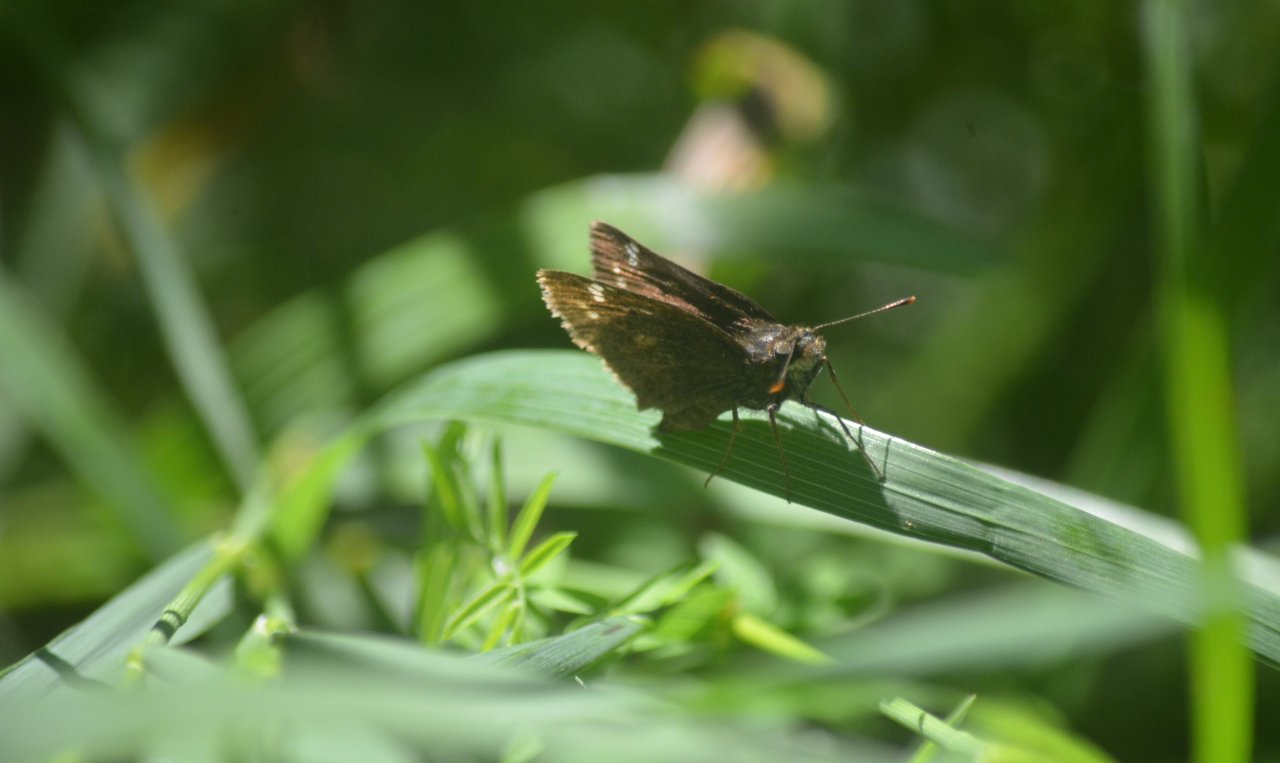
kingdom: Animalia
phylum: Arthropoda
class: Insecta
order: Lepidoptera
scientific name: Lepidoptera
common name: Butterflies
